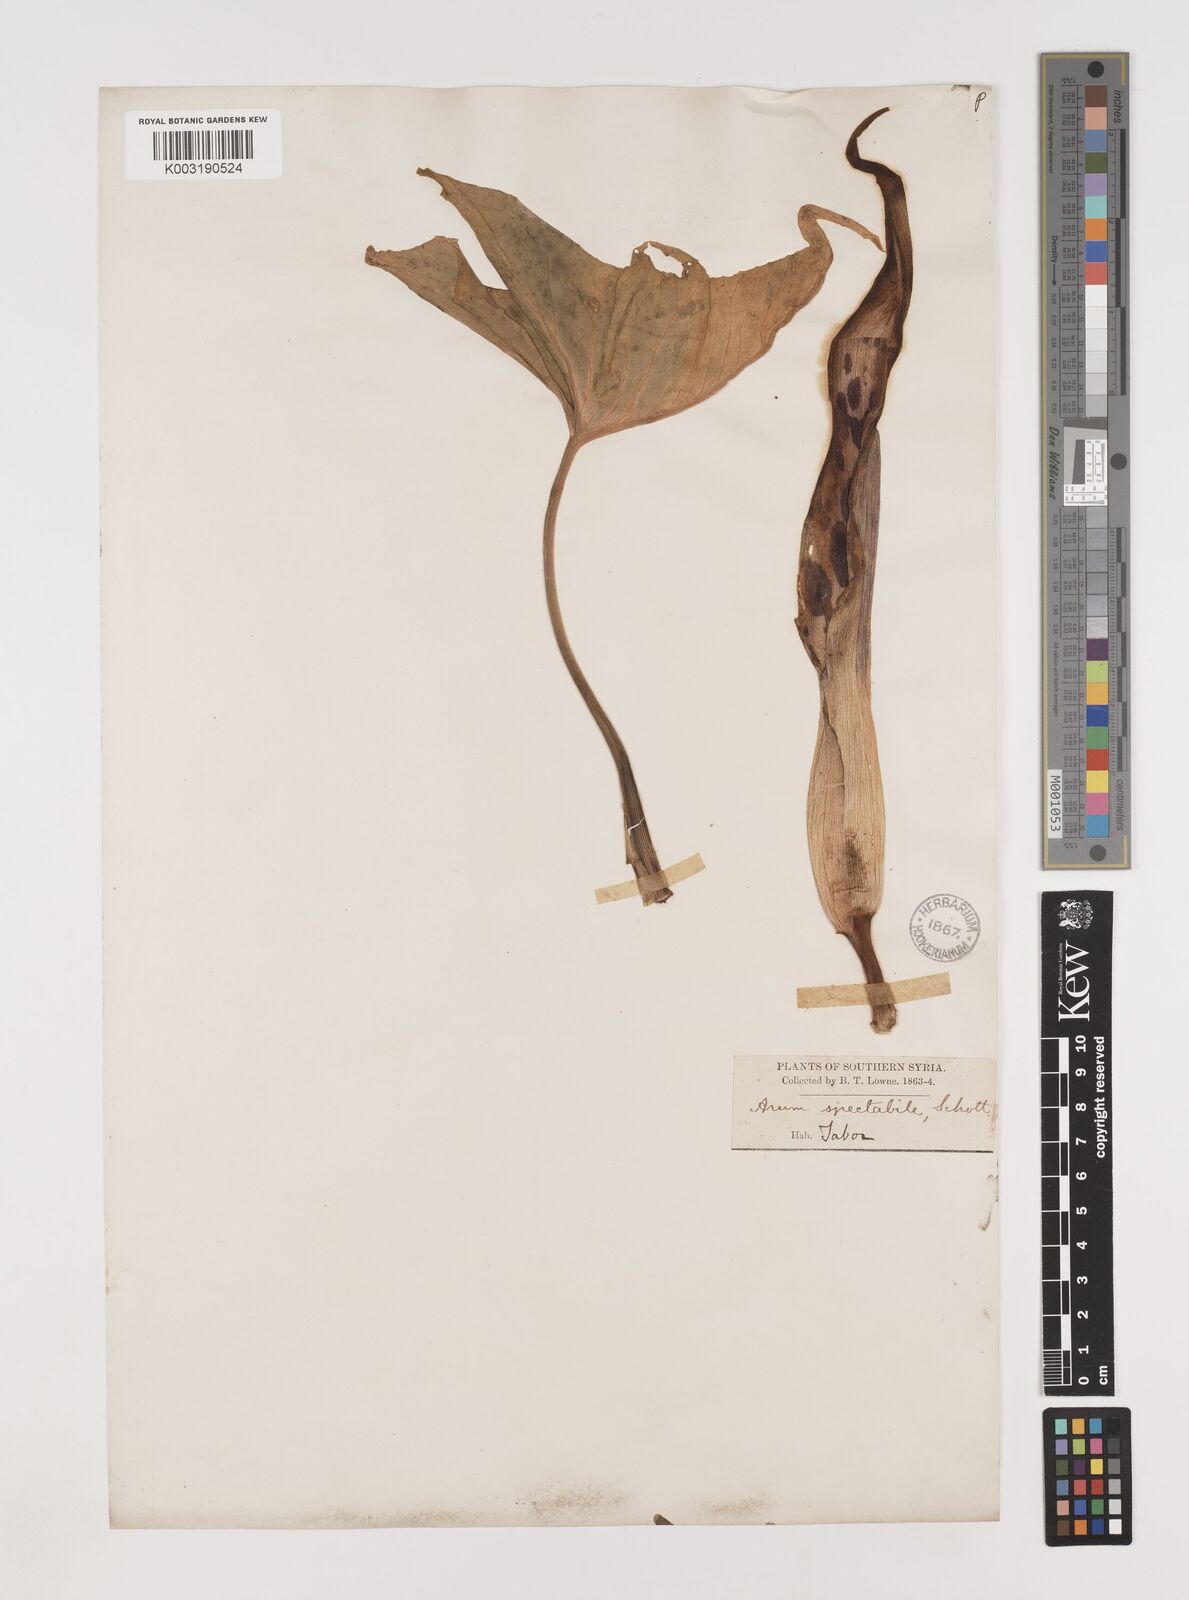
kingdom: Plantae
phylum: Tracheophyta
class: Liliopsida
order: Alismatales
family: Araceae
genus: Arum
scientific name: Arum dioscoridis
